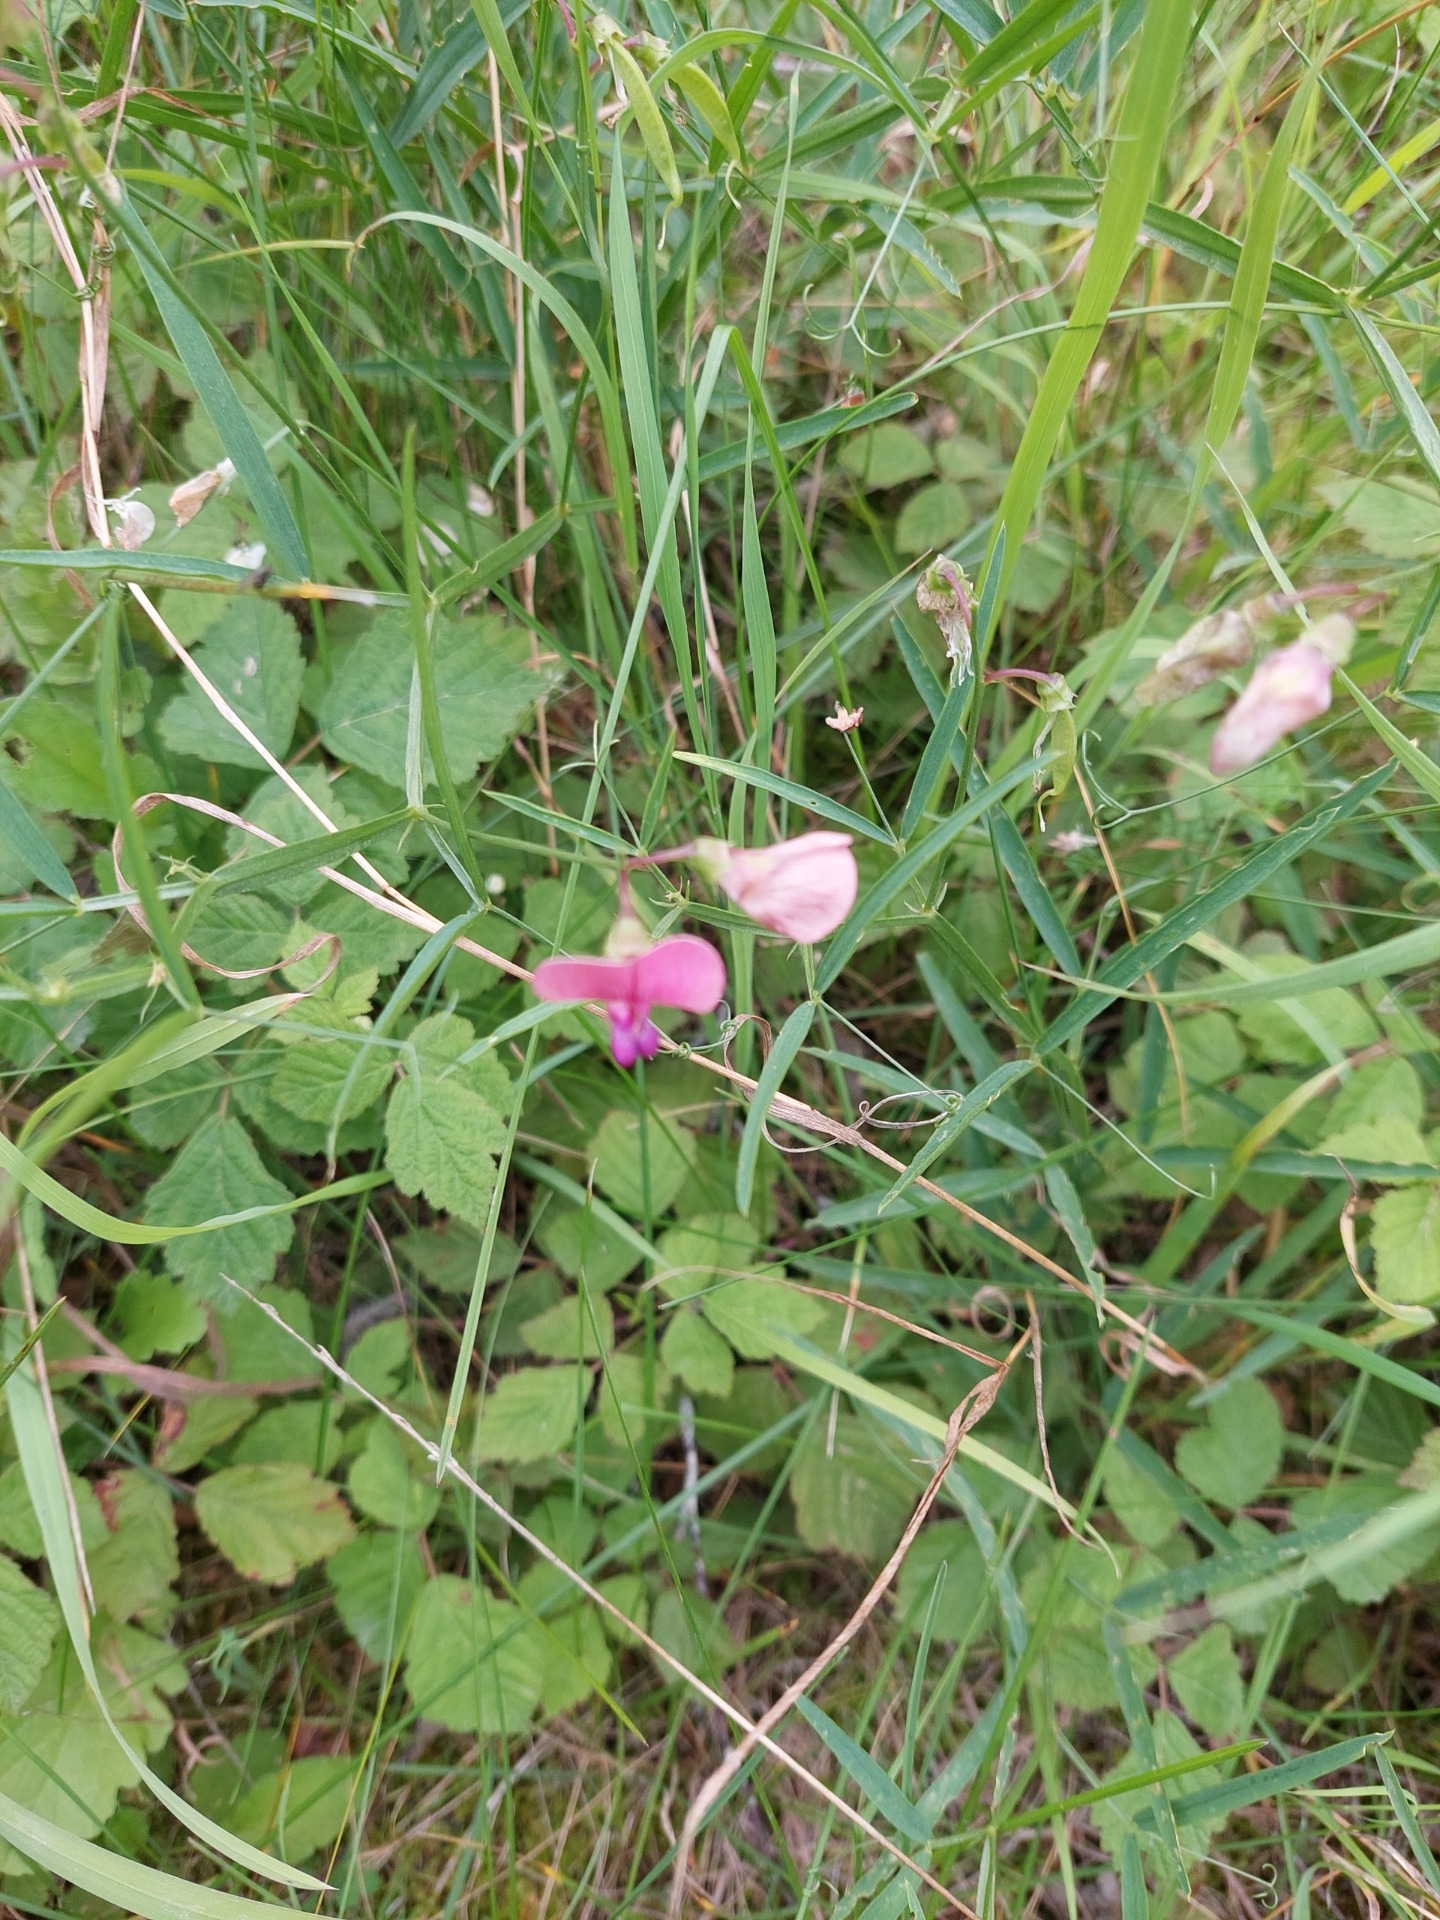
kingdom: Plantae
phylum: Tracheophyta
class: Magnoliopsida
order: Fabales
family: Fabaceae
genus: Lathyrus
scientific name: Lathyrus sylvestris
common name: Skov-fladbælg
